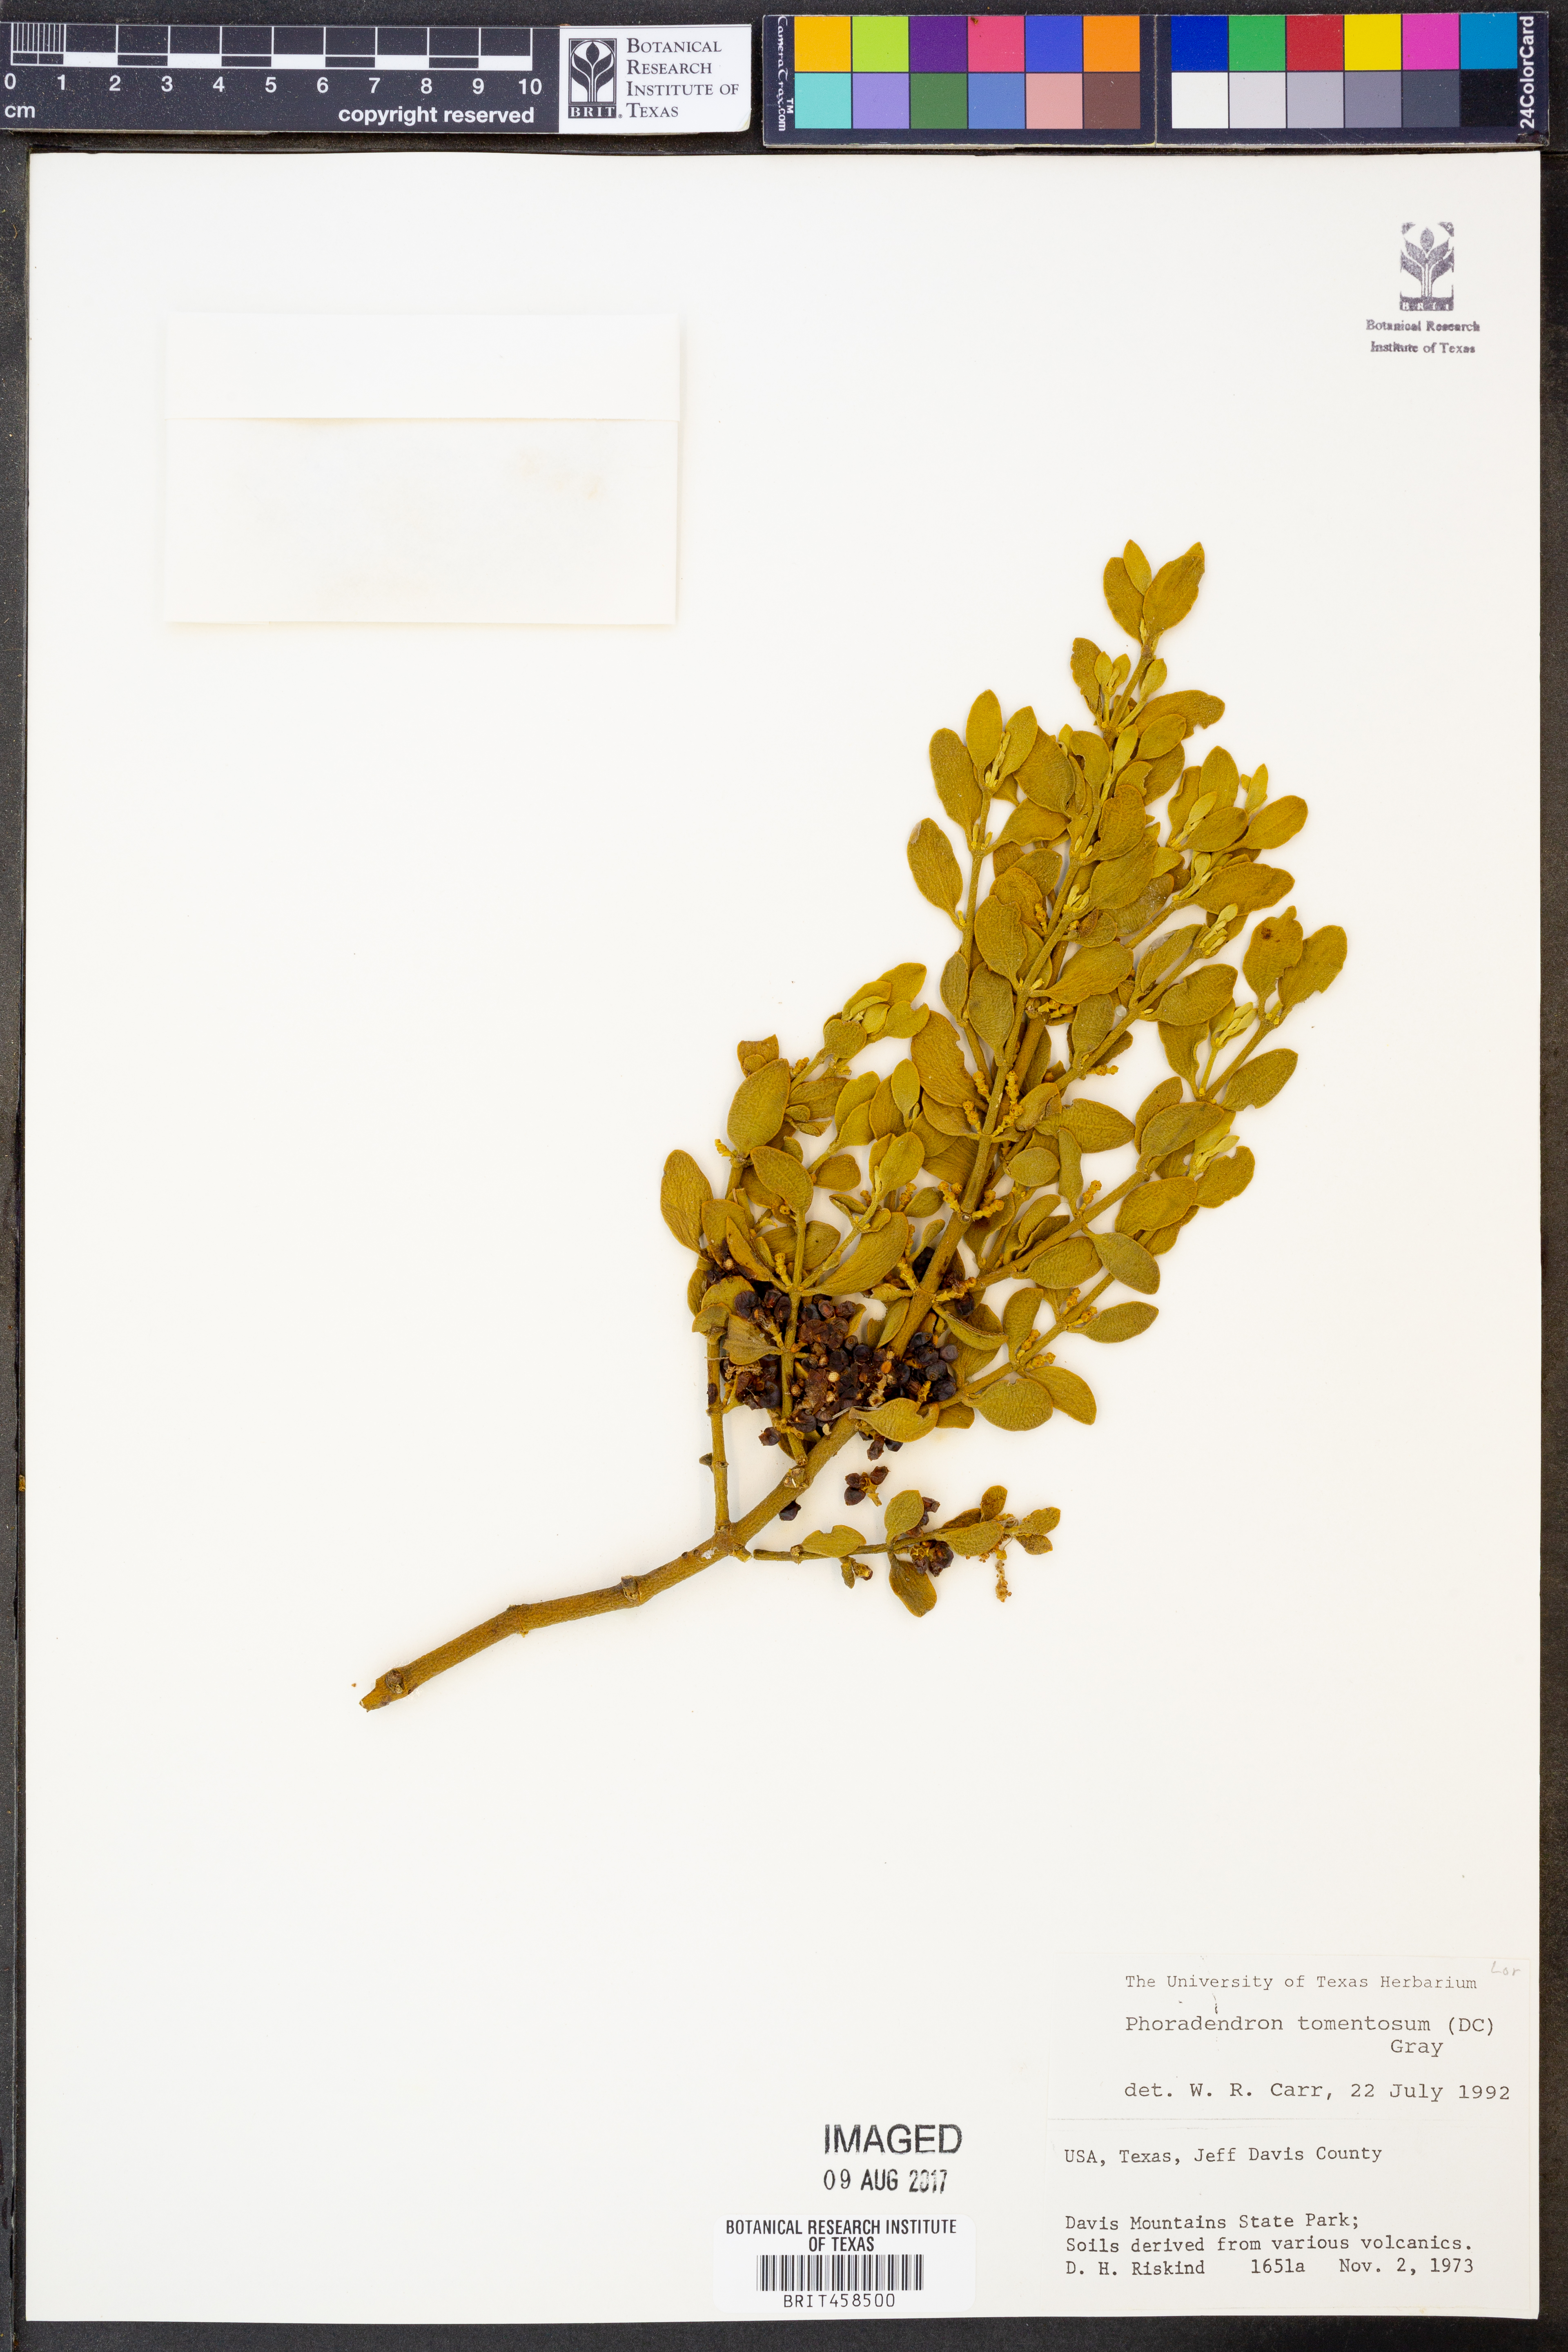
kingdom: Plantae
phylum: Tracheophyta
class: Magnoliopsida
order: Santalales
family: Viscaceae
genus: Phoradendron
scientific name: Phoradendron leucarpum
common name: Pacific mistletoe
